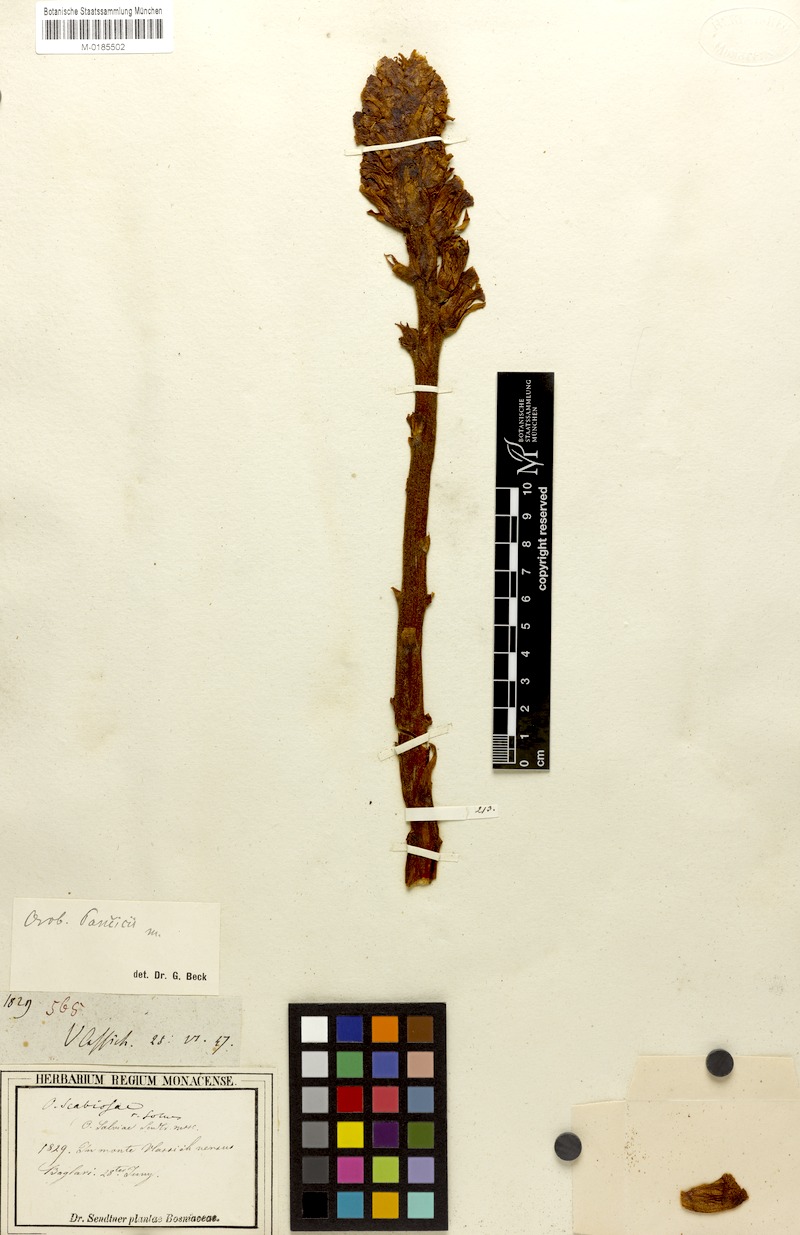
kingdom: Plantae
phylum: Tracheophyta
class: Magnoliopsida
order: Lamiales
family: Orobanchaceae
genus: Orobanche
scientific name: Orobanche pancicii
